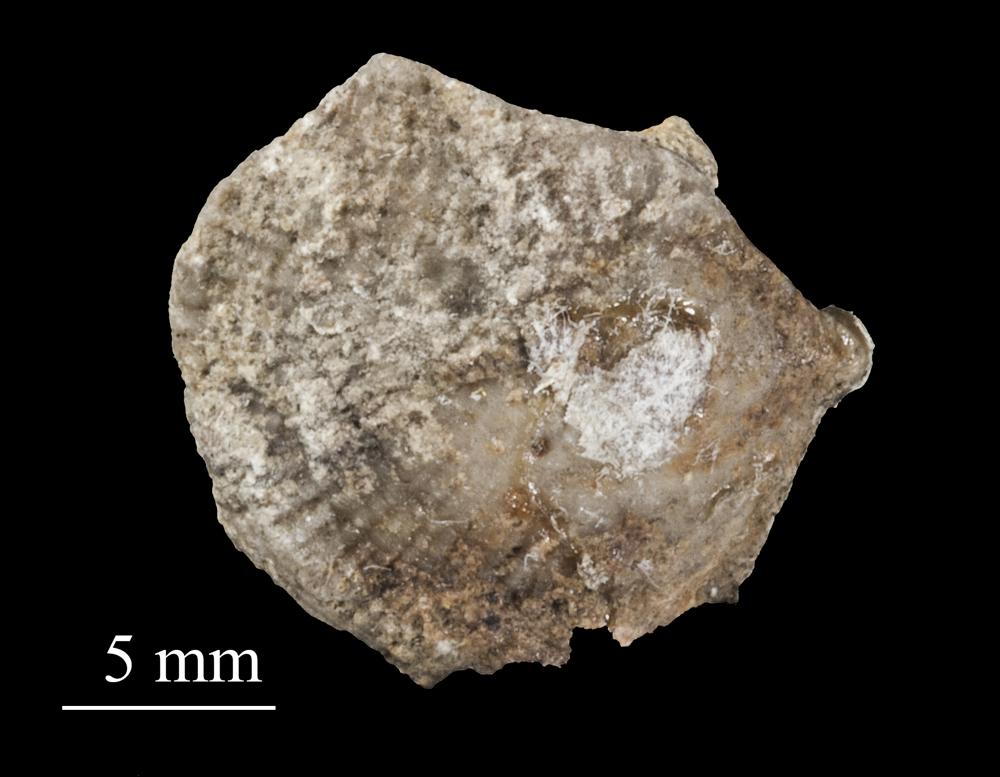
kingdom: Animalia
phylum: Brachiopoda
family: Gonambonitidae
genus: Estlandia
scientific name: Estlandia Orthisina marginata
